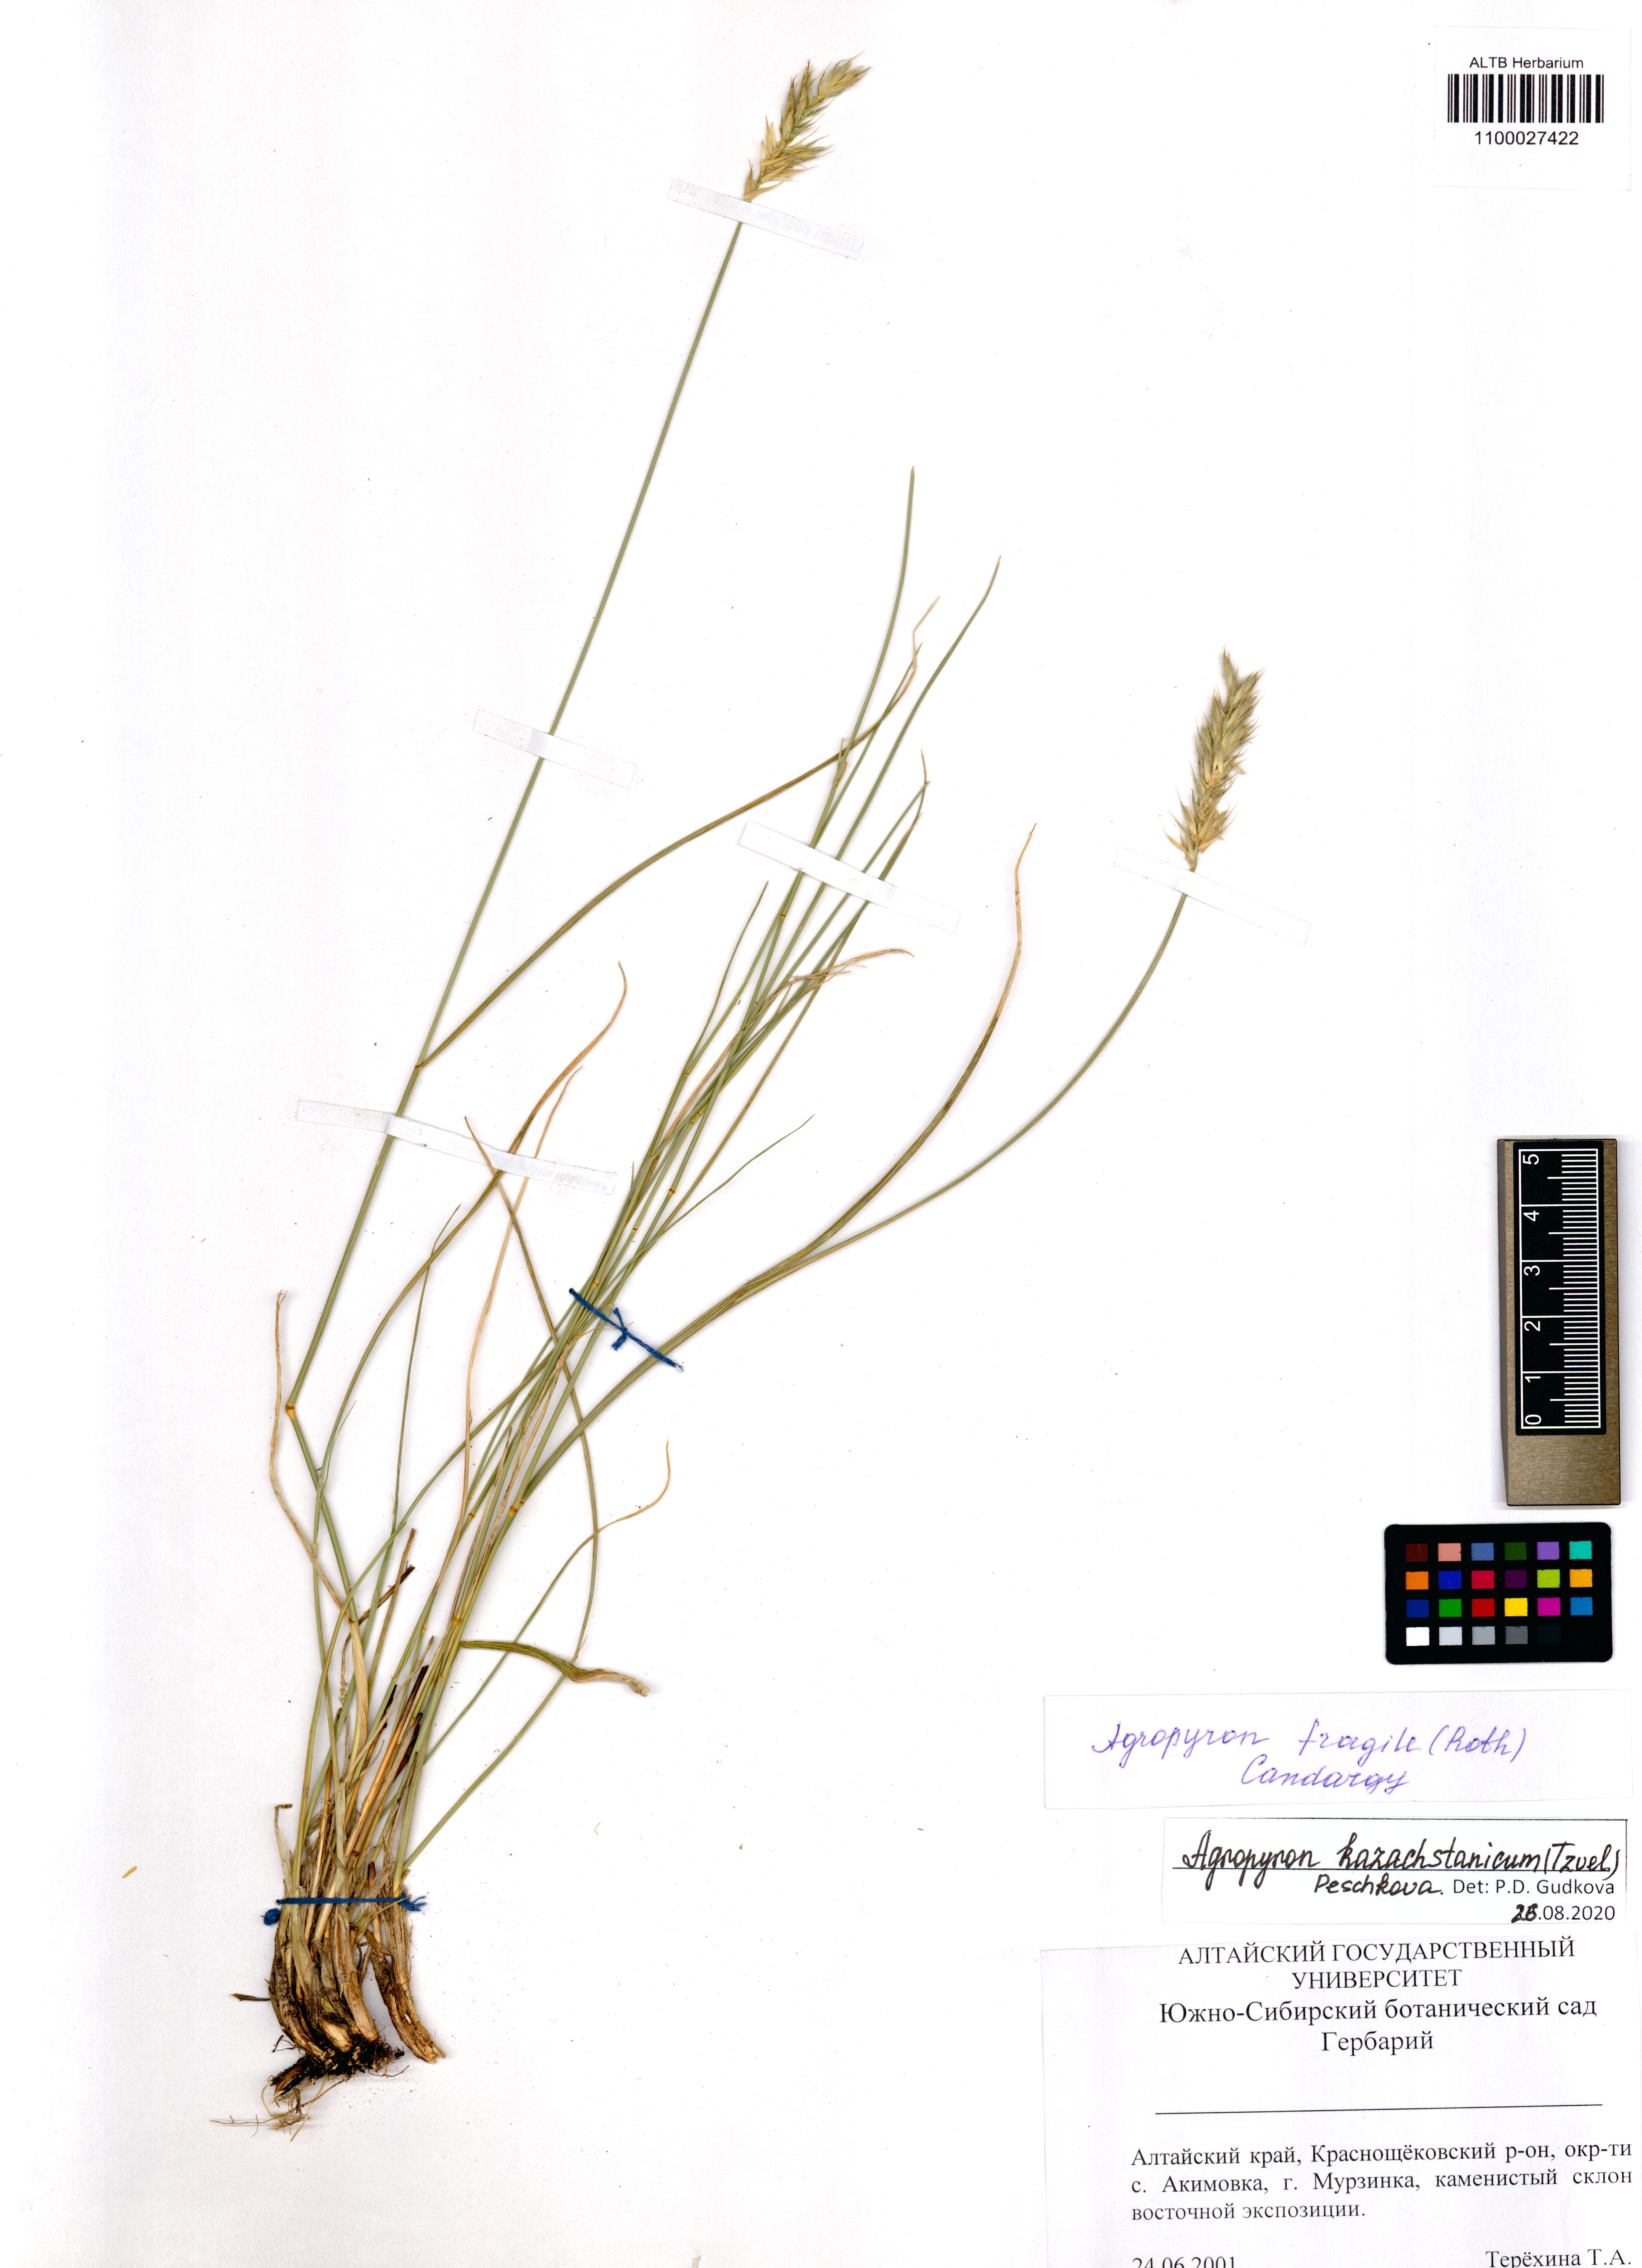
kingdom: Plantae
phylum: Tracheophyta
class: Liliopsida
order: Poales
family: Poaceae
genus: Agropyron
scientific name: Agropyron cristatum
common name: Crested wheatgrass
